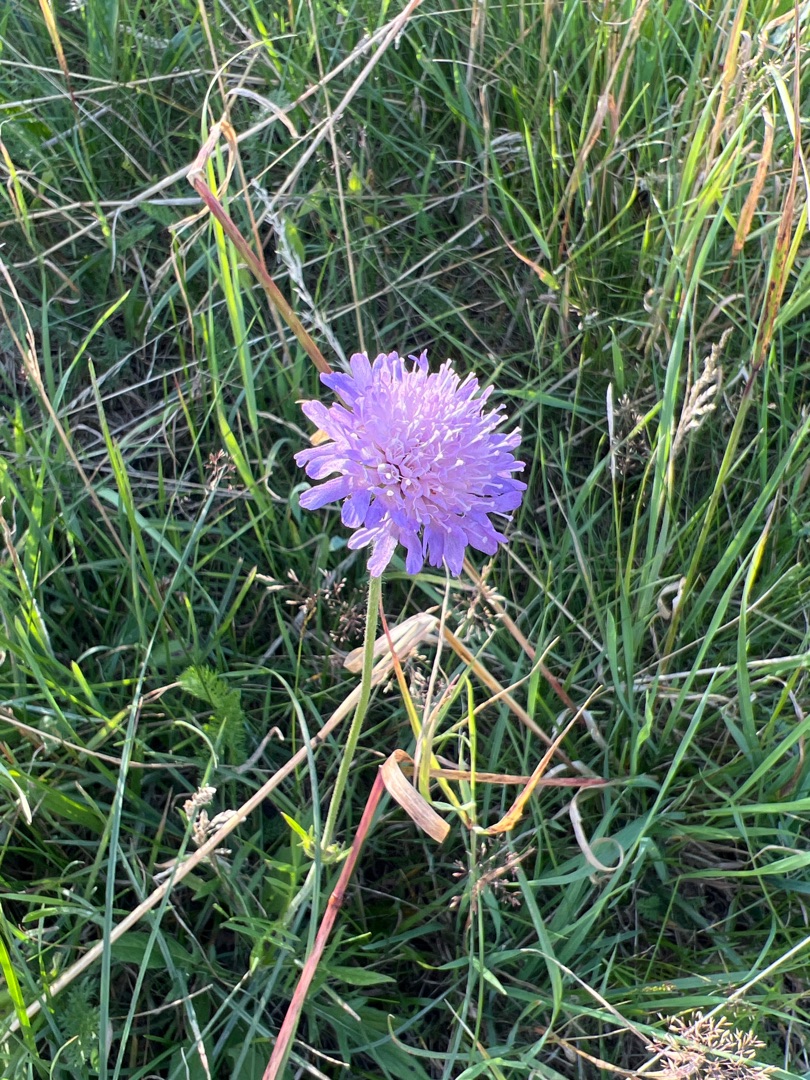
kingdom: Plantae
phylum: Tracheophyta
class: Magnoliopsida
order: Dipsacales
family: Caprifoliaceae
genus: Knautia
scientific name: Knautia arvensis
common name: Blåhat
